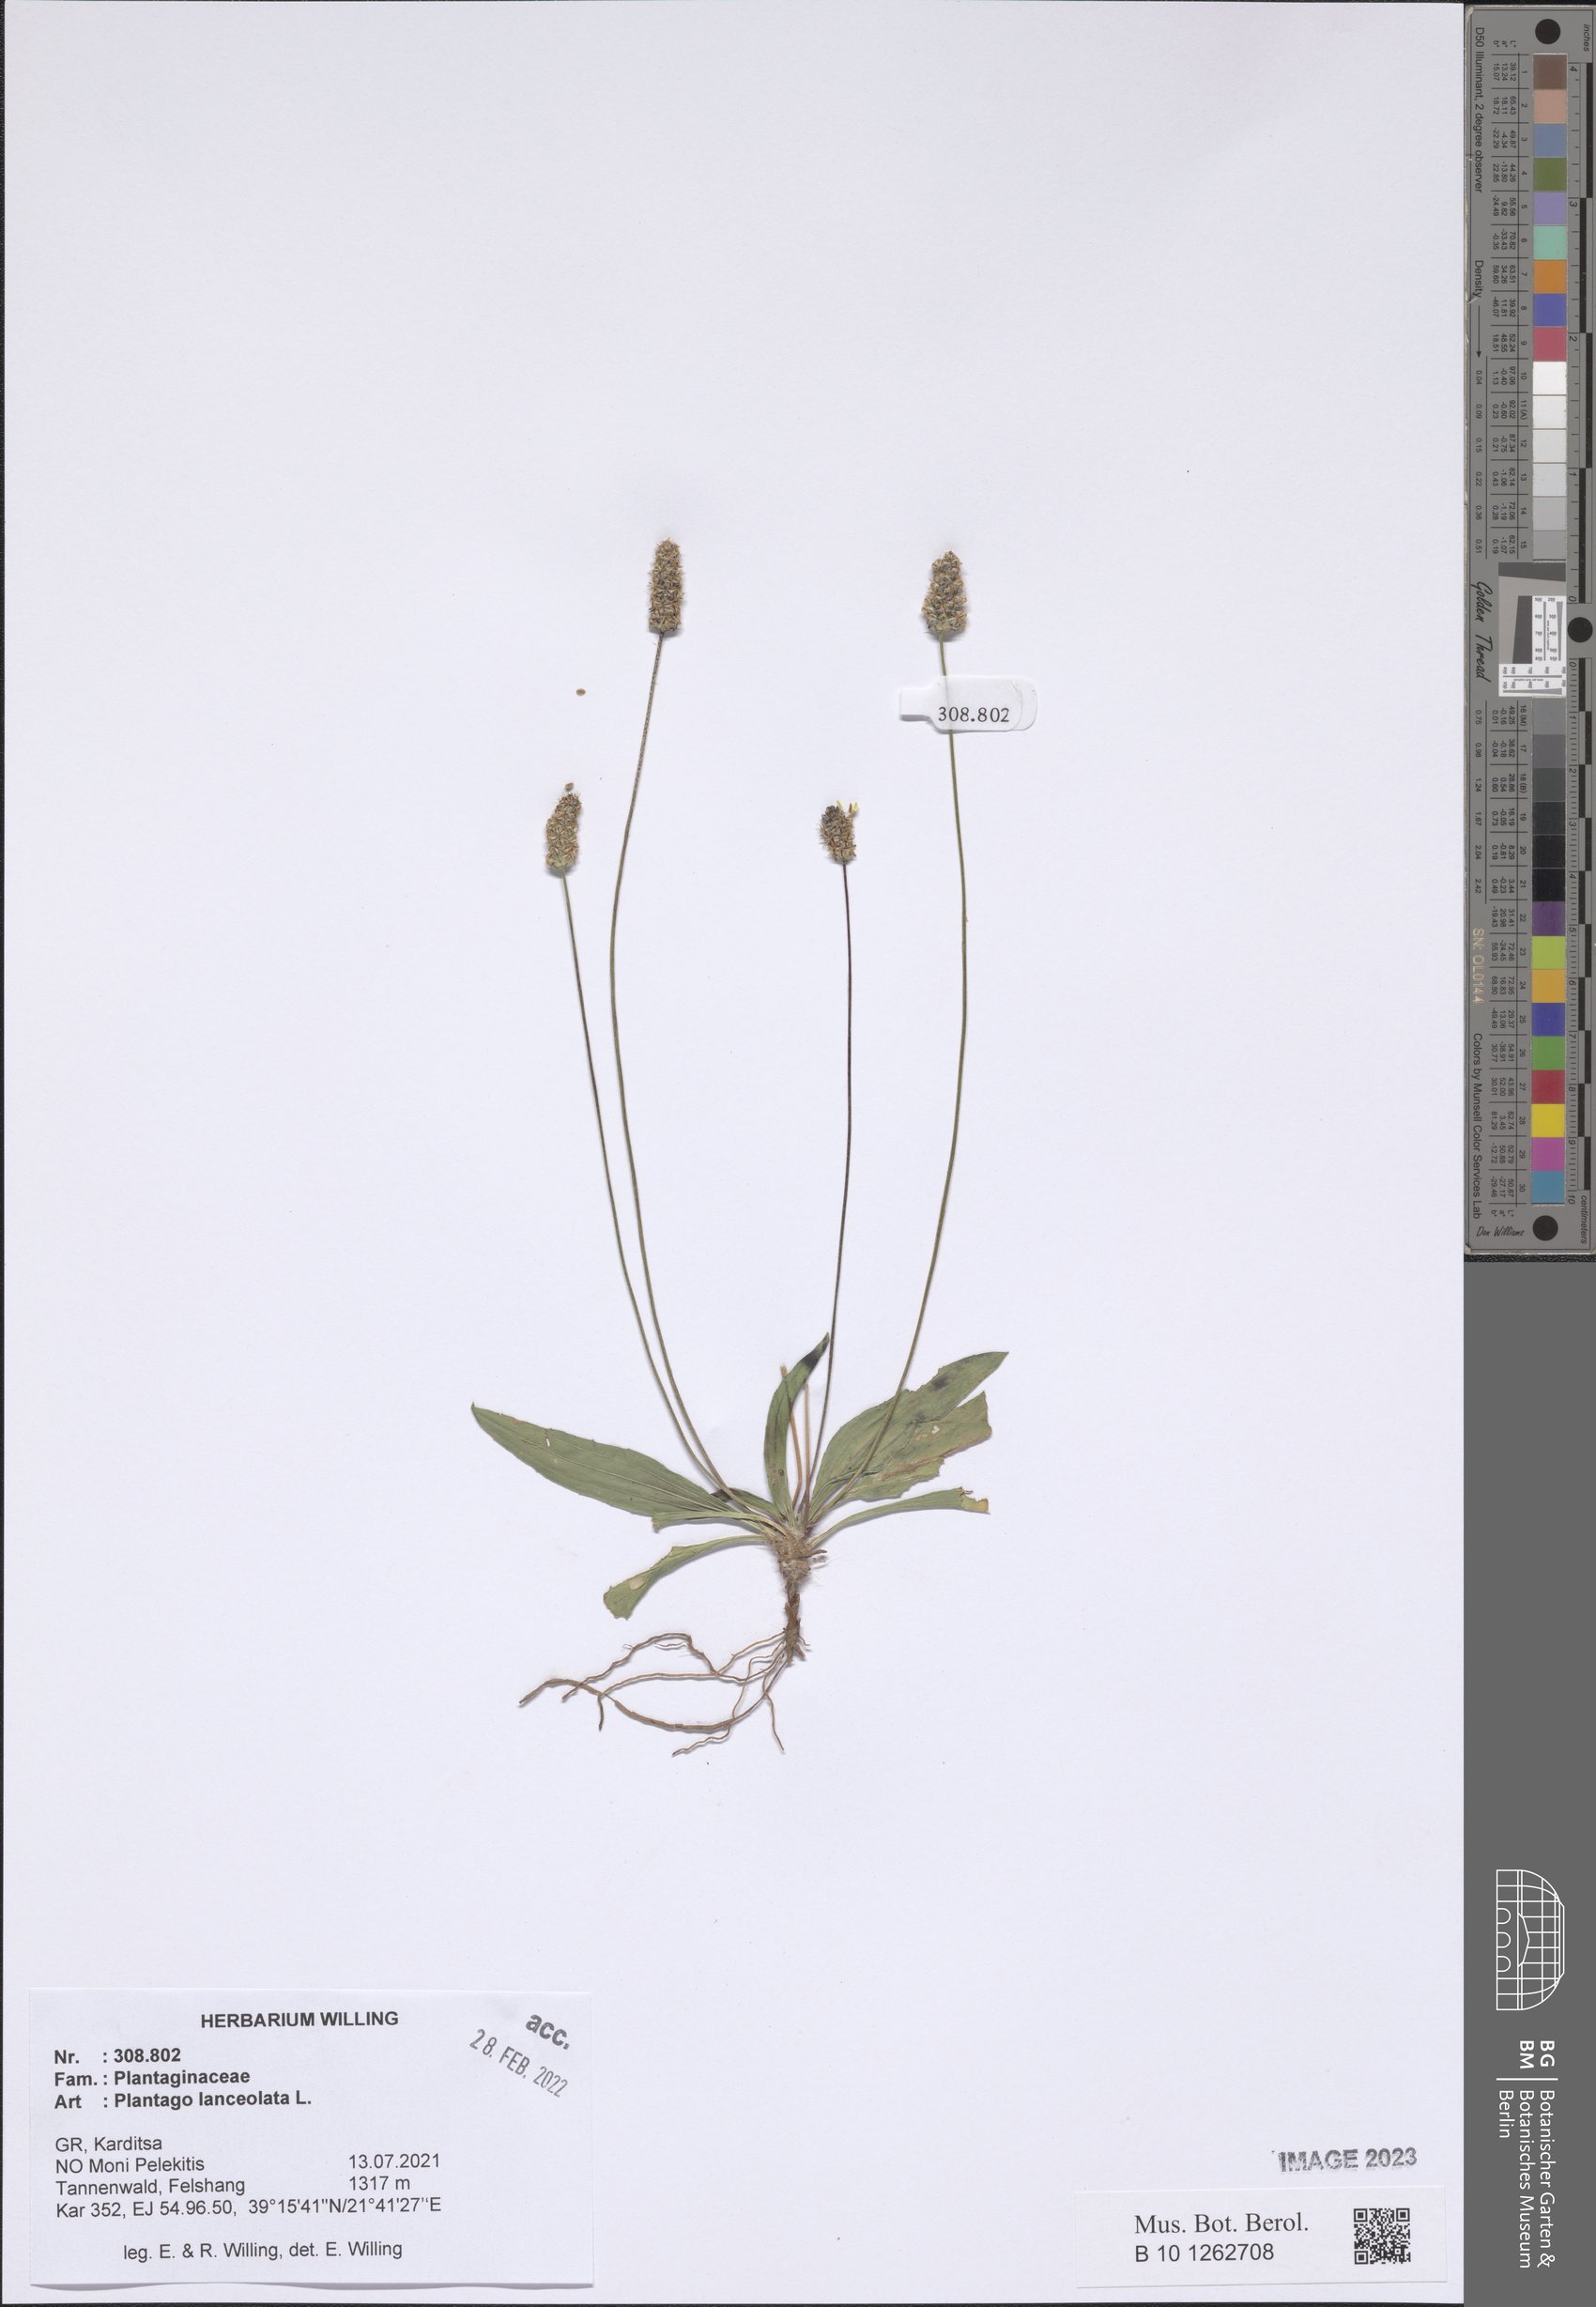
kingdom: Plantae
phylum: Tracheophyta
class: Magnoliopsida
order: Lamiales
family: Plantaginaceae
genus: Plantago
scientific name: Plantago lanceolata
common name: Ribwort plantain
